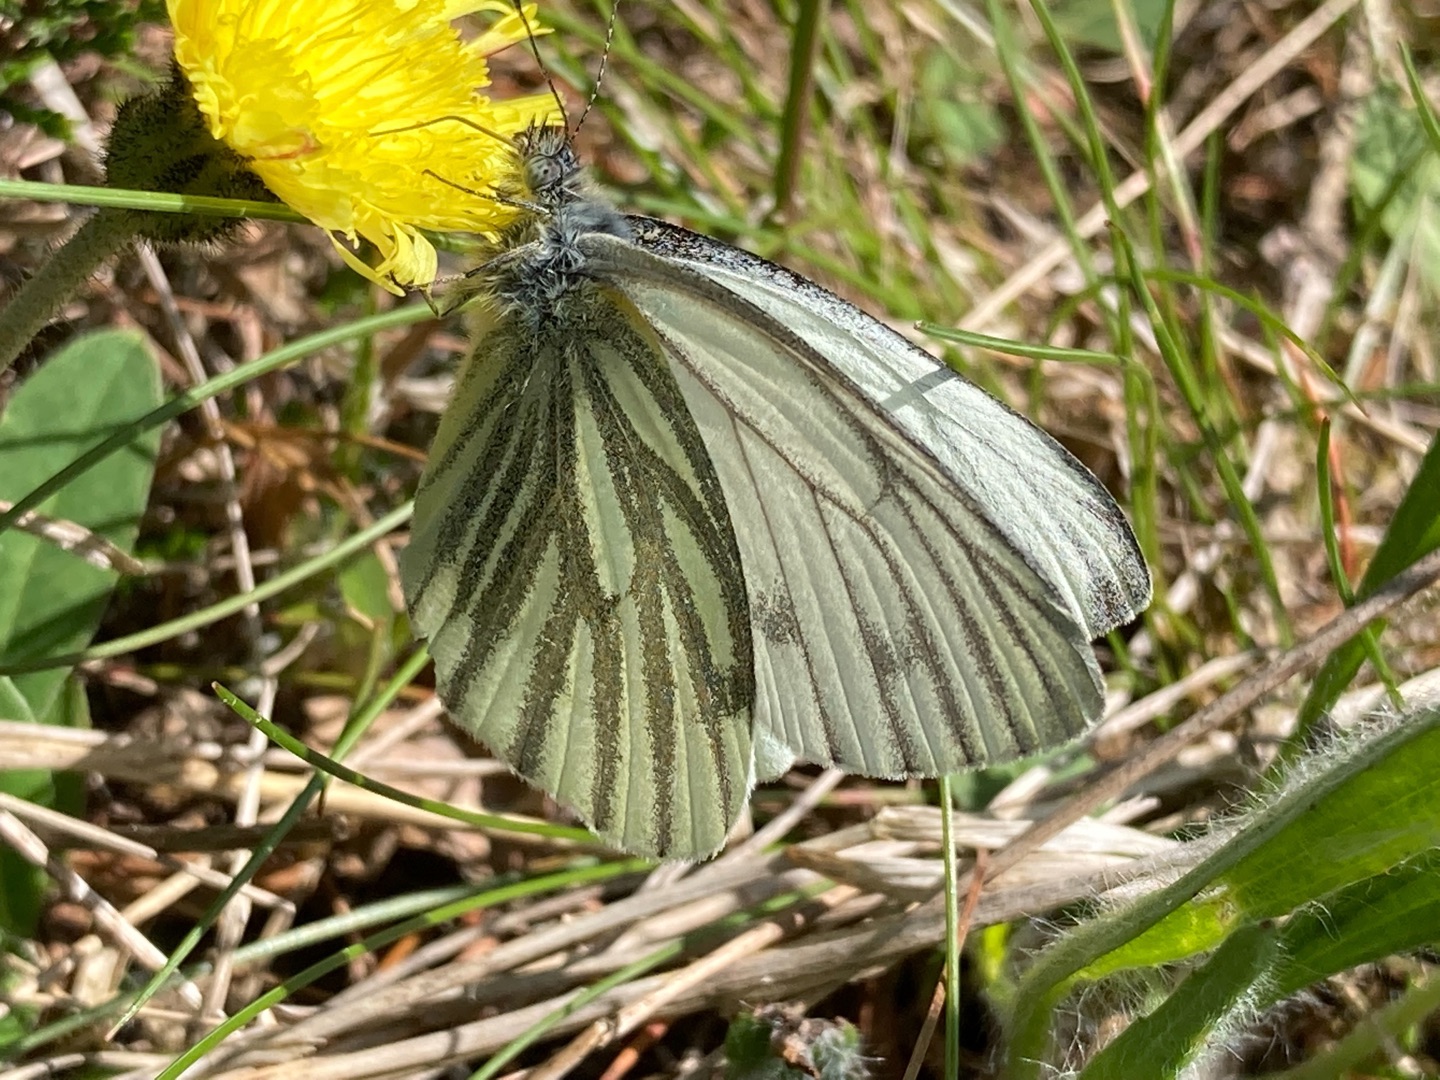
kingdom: Animalia
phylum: Arthropoda
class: Insecta
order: Lepidoptera
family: Pieridae
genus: Pieris
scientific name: Pieris napi
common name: Grønåret kålsommerfugl
